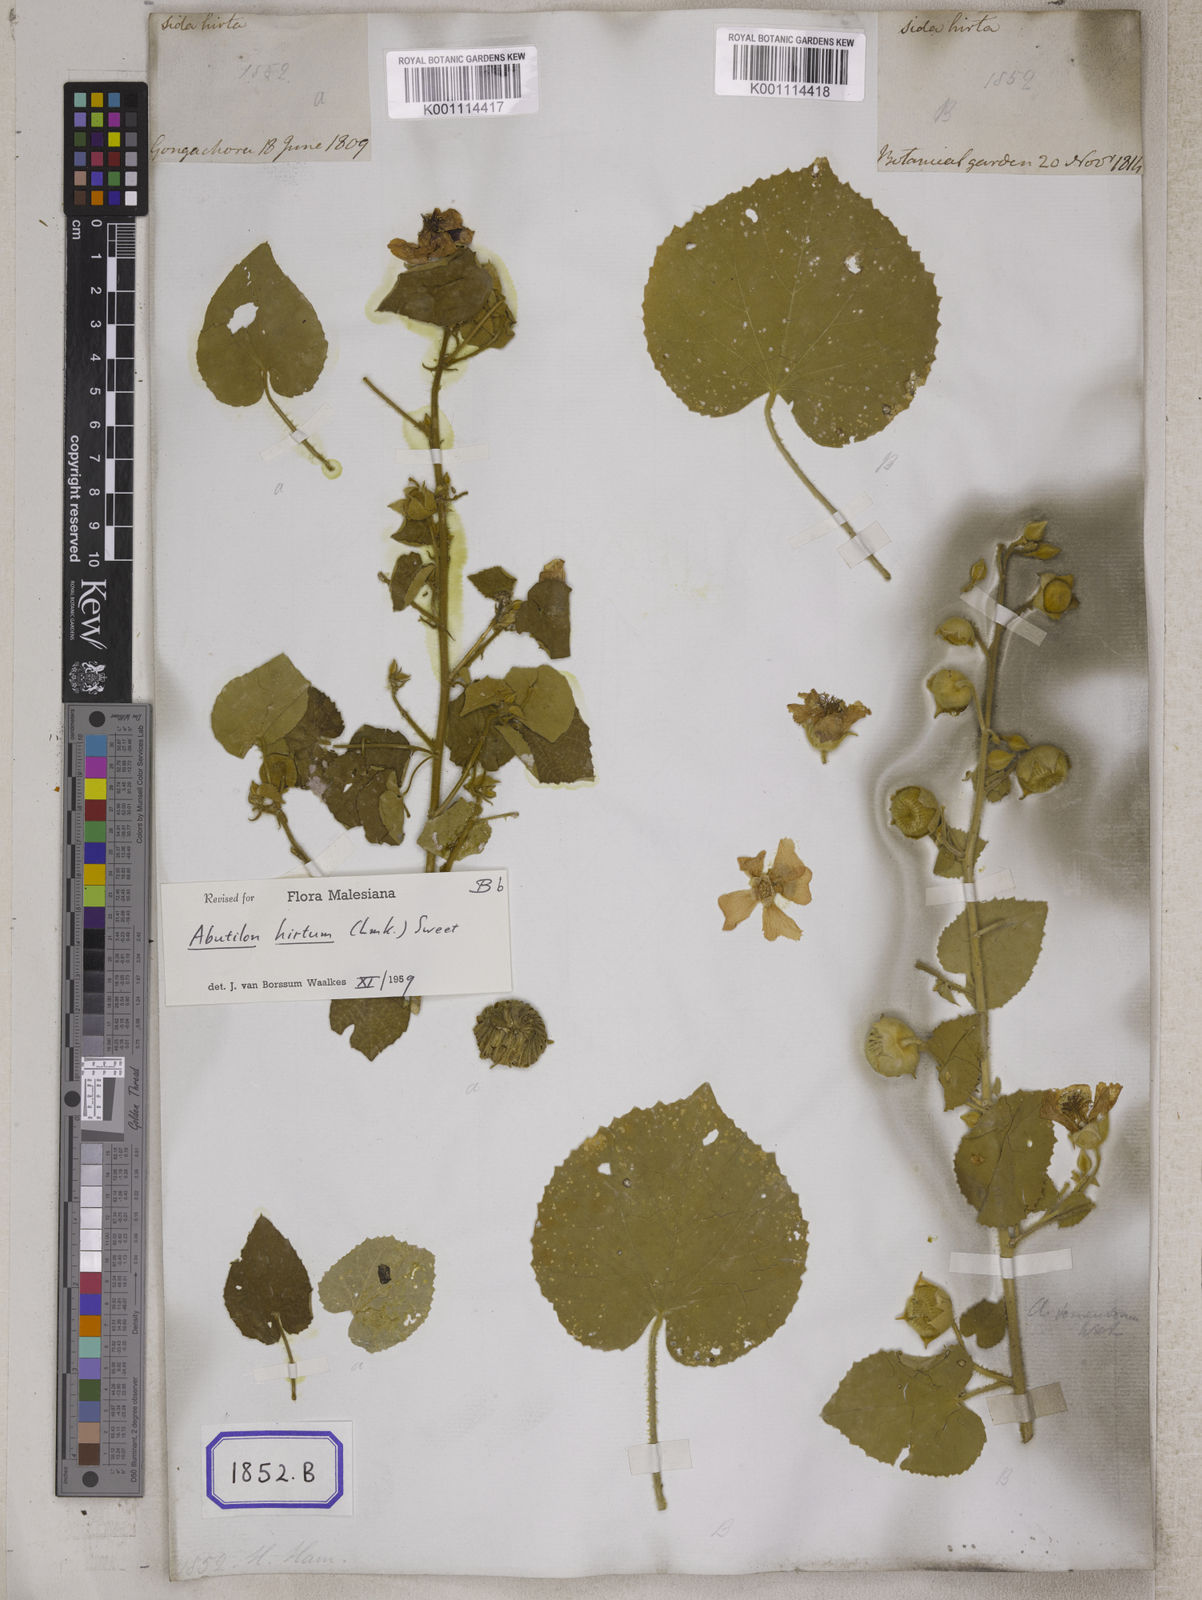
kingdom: Plantae
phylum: Tracheophyta
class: Magnoliopsida
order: Malvales
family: Malvaceae
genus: Abutilon
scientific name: Abutilon pannosum
